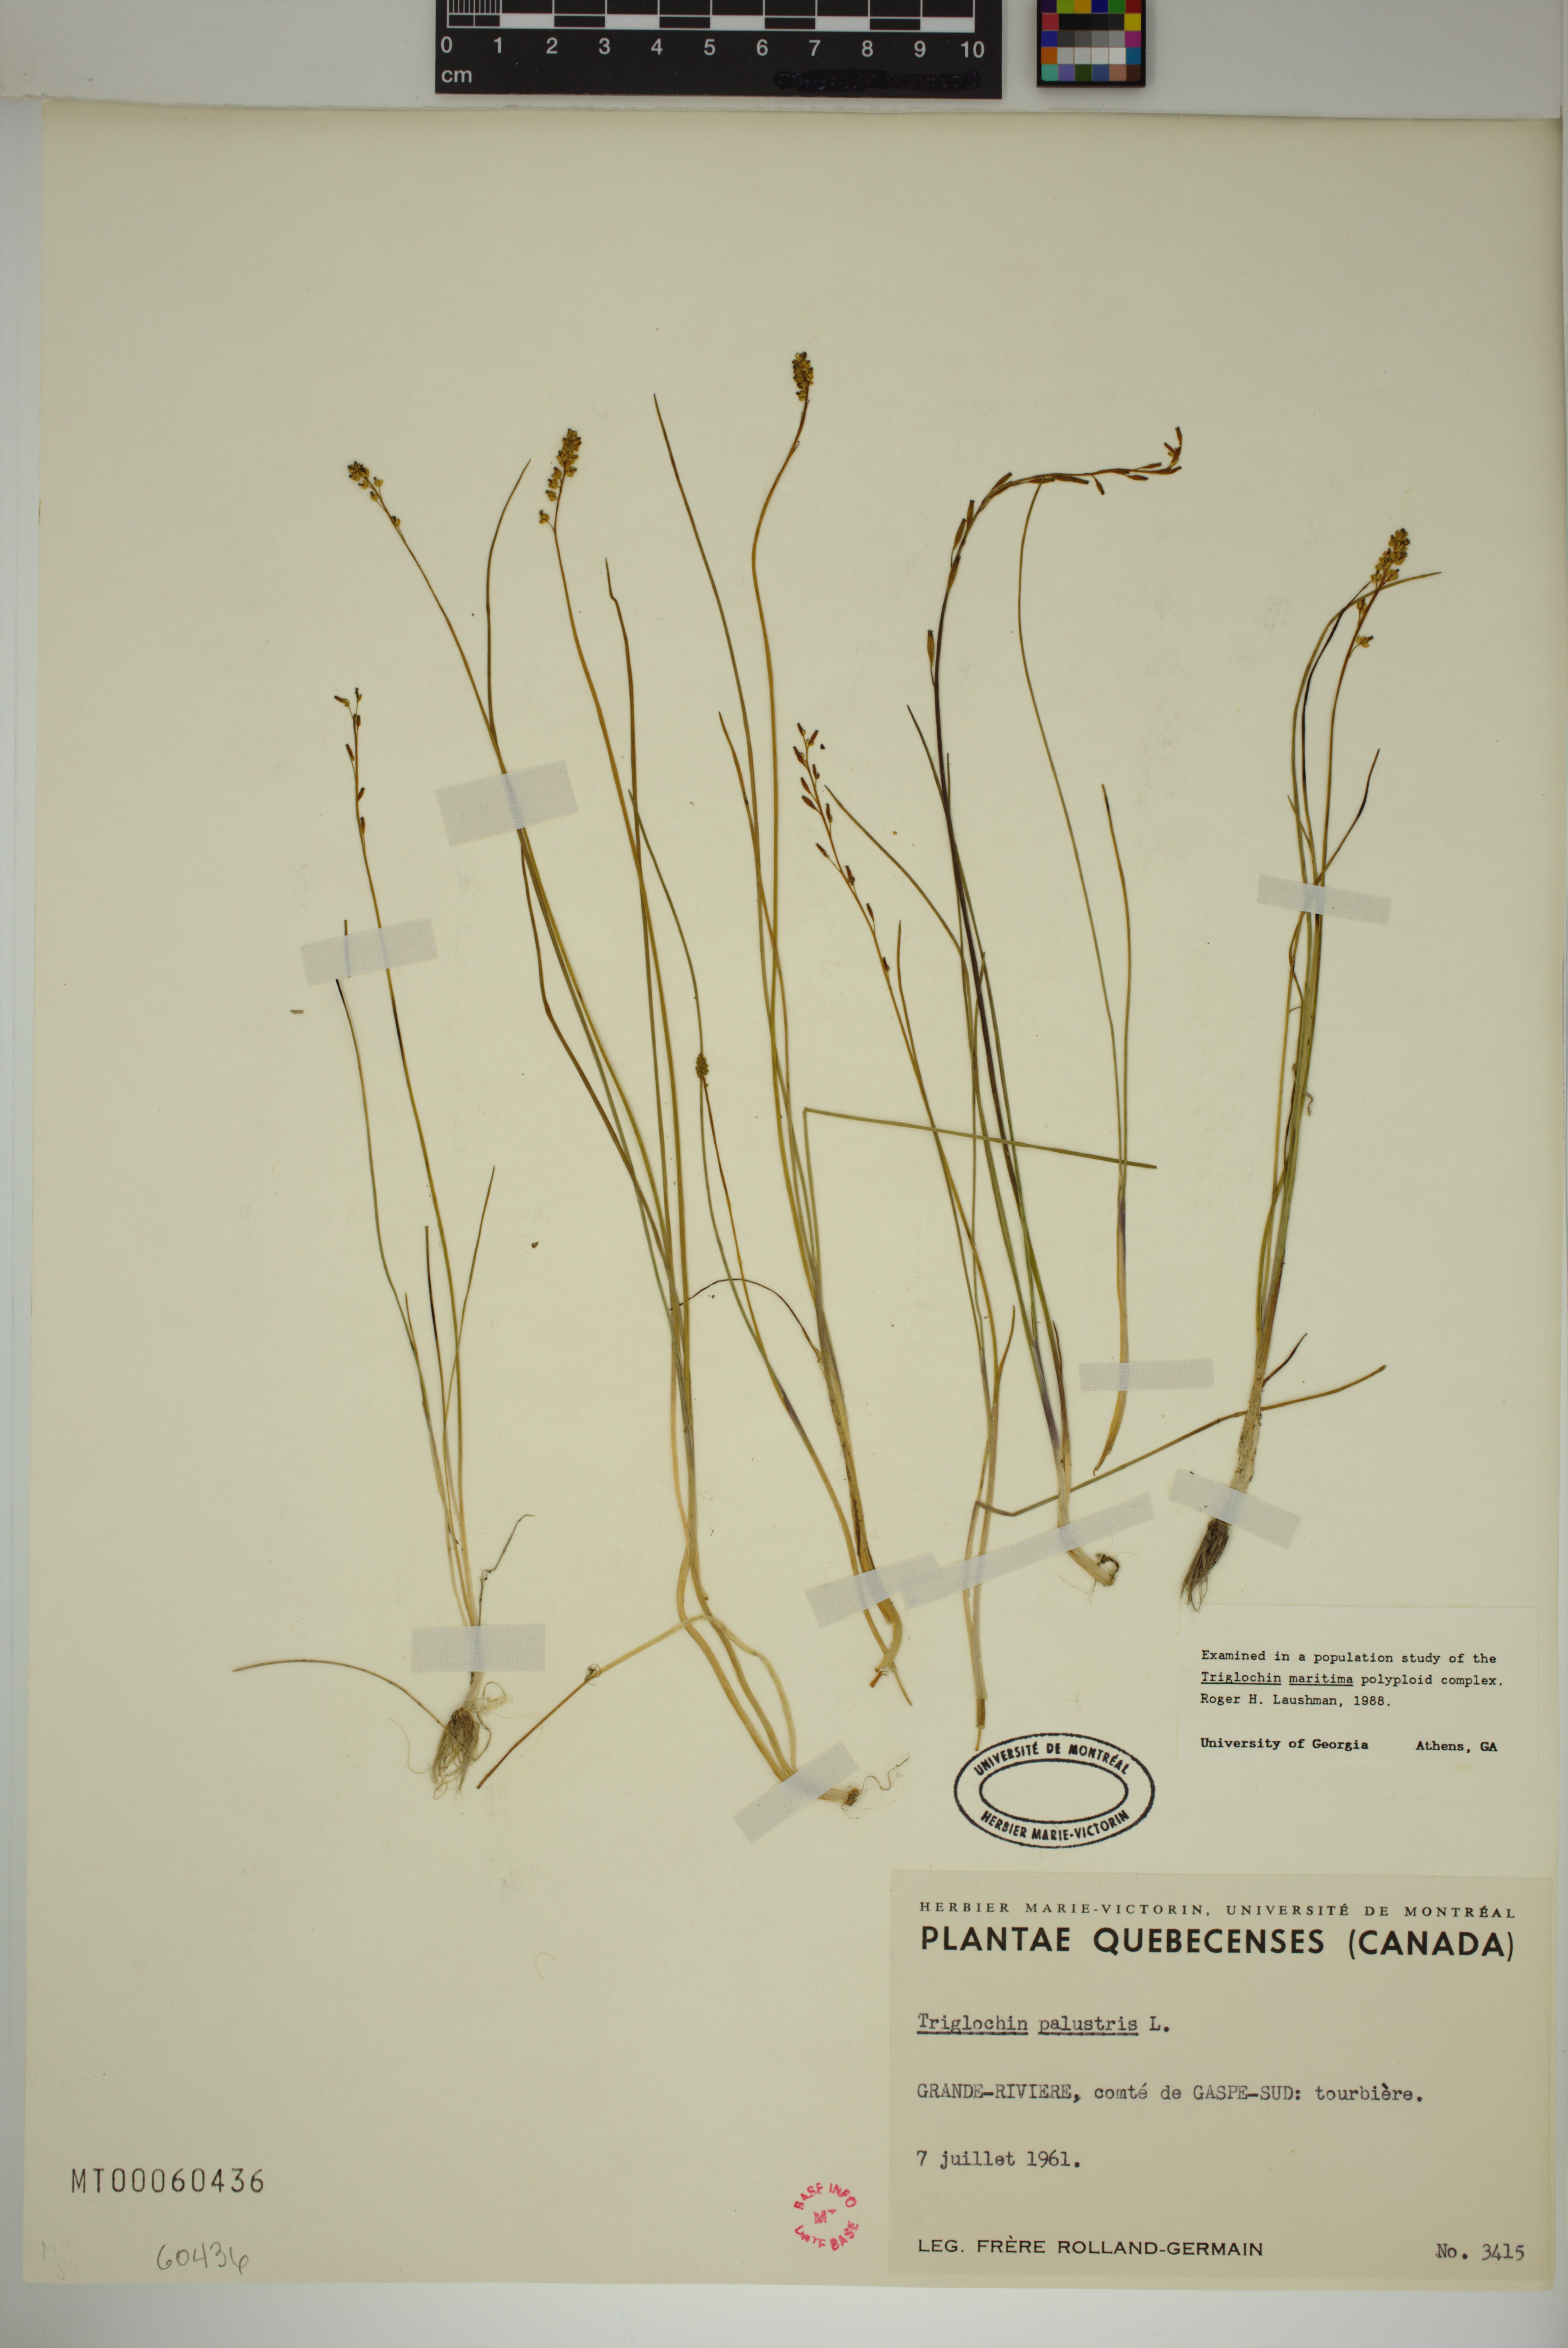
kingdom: Plantae
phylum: Tracheophyta
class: Liliopsida
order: Alismatales
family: Juncaginaceae
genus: Triglochin
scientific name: Triglochin palustris
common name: Marsh arrowgrass
